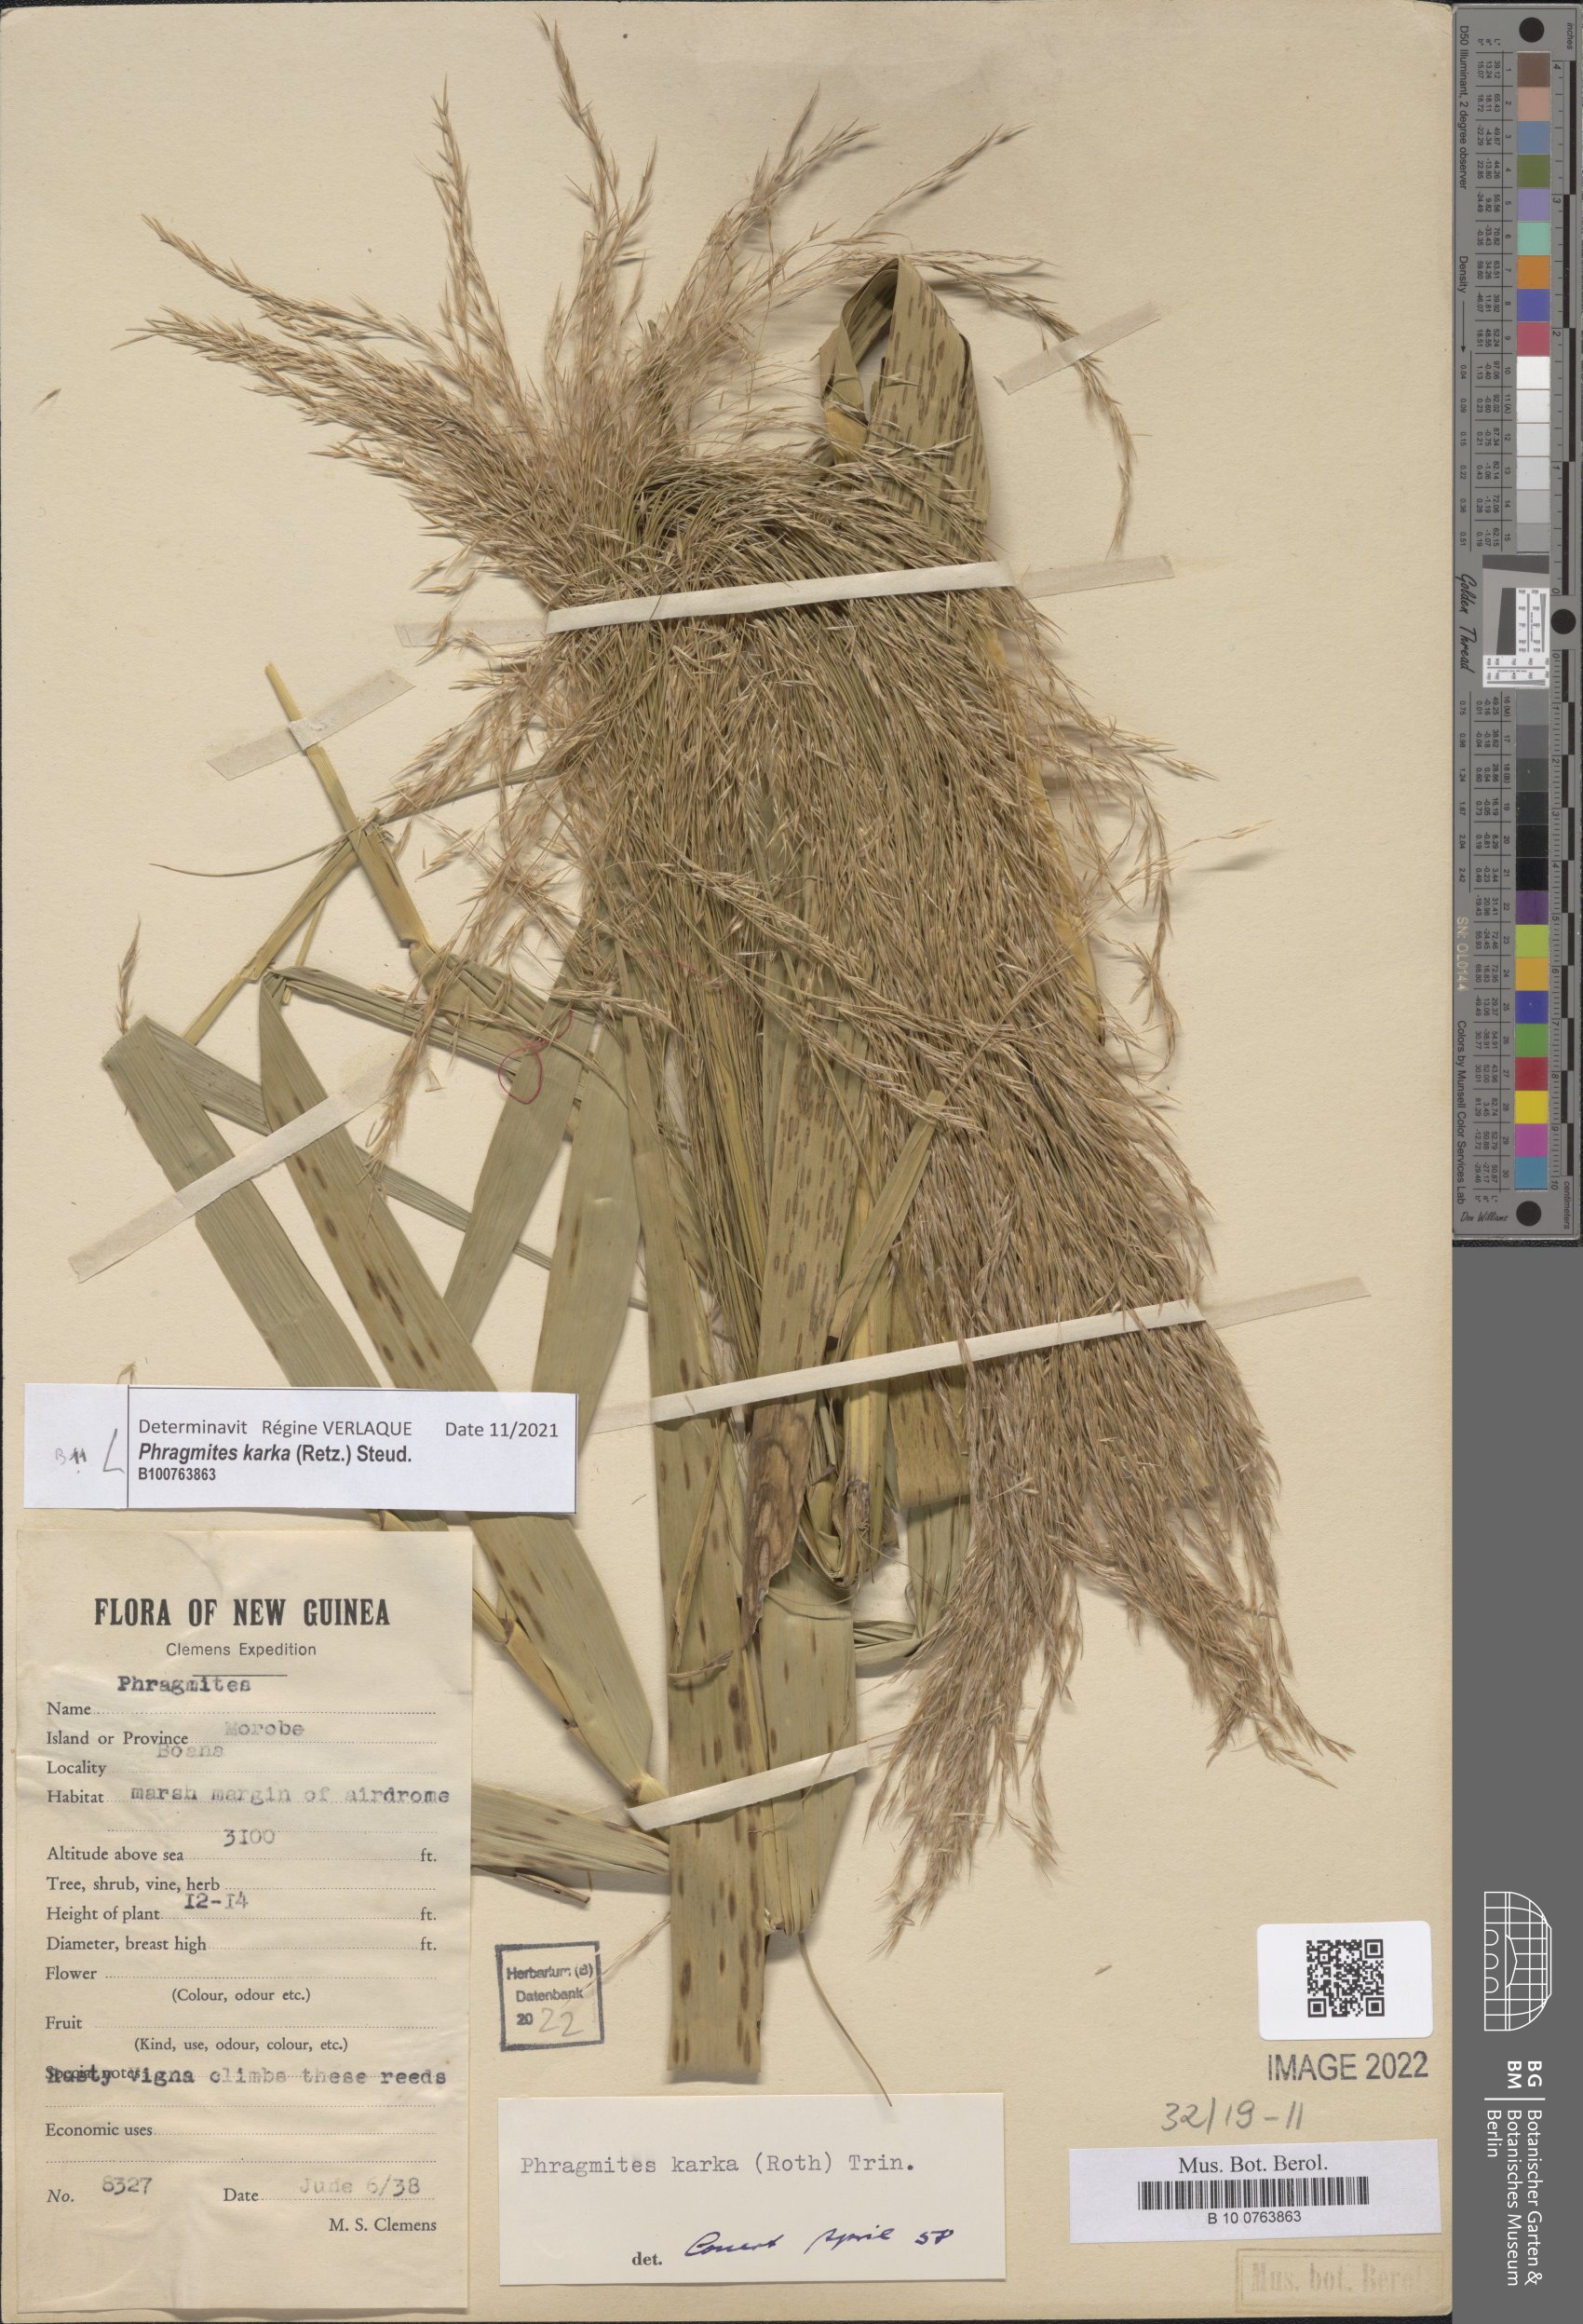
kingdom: Plantae
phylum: Tracheophyta
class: Liliopsida
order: Poales
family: Poaceae
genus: Phragmites
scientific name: Phragmites karka
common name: Tropical reed
